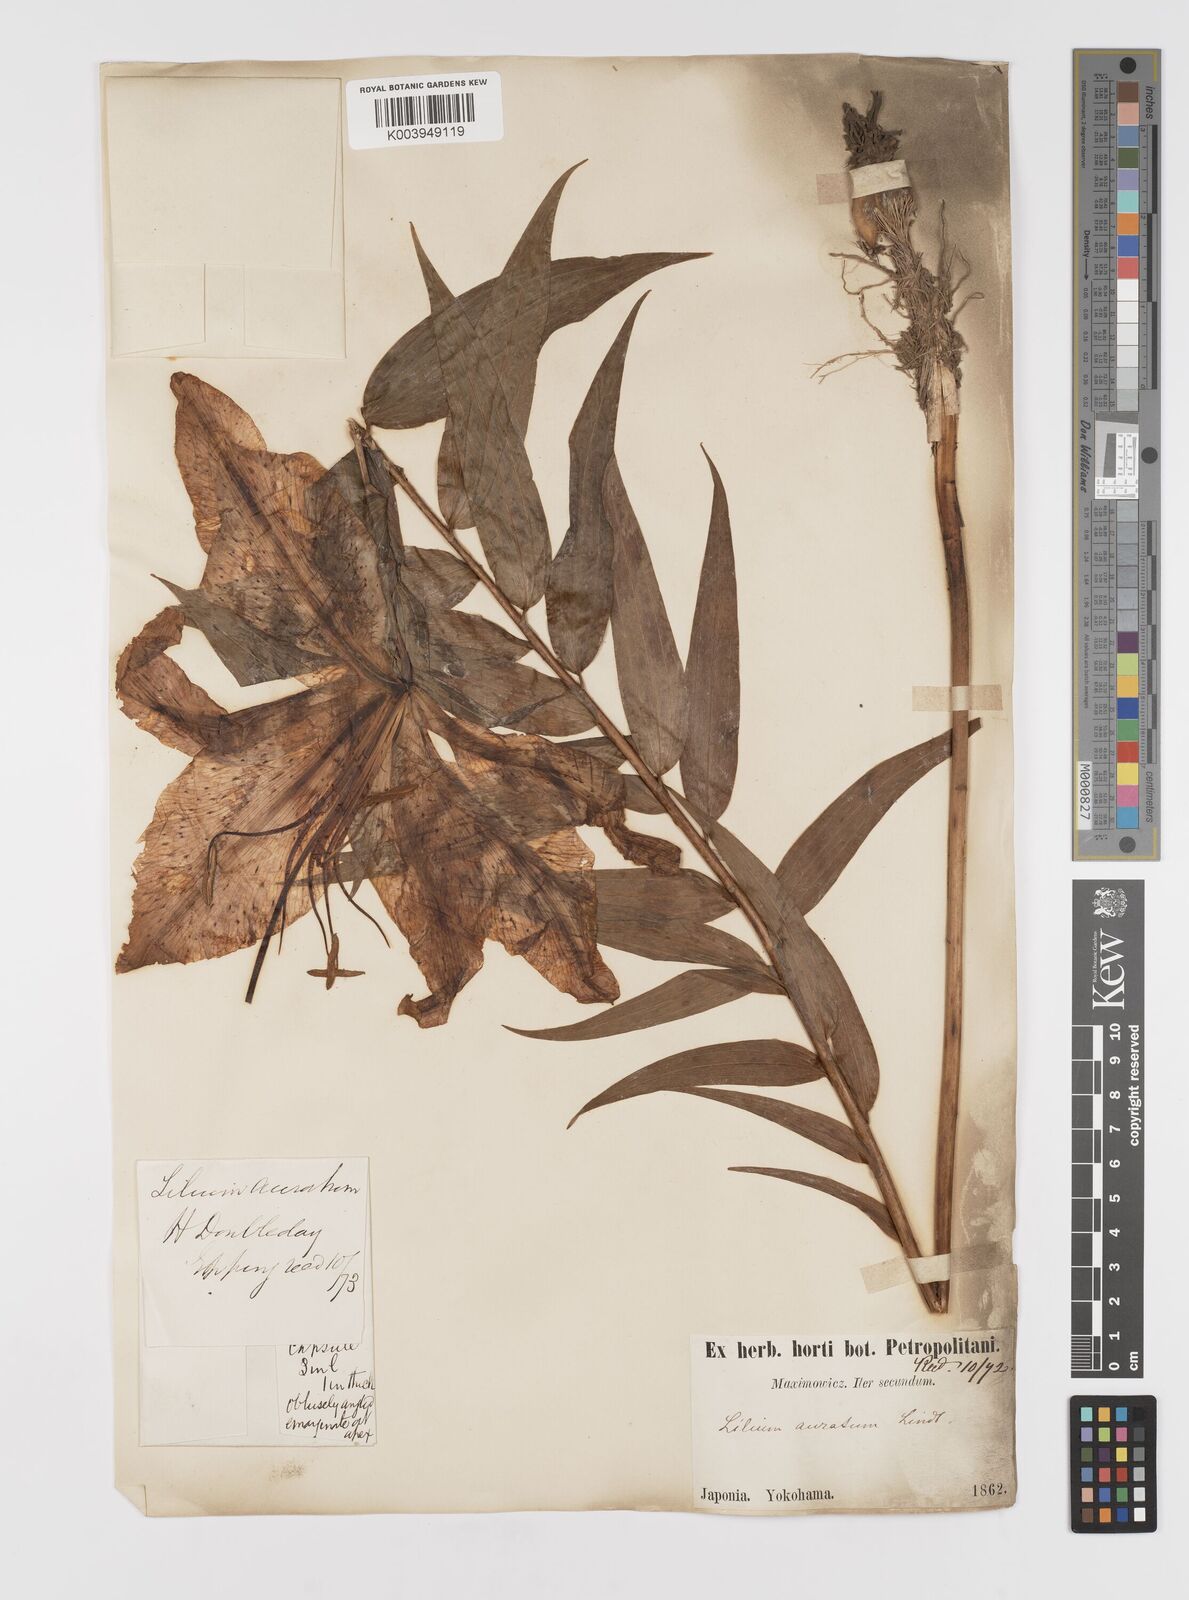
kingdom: Plantae
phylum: Tracheophyta
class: Liliopsida
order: Liliales
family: Liliaceae
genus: Lilium
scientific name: Lilium auratum
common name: Golden-ray lily
